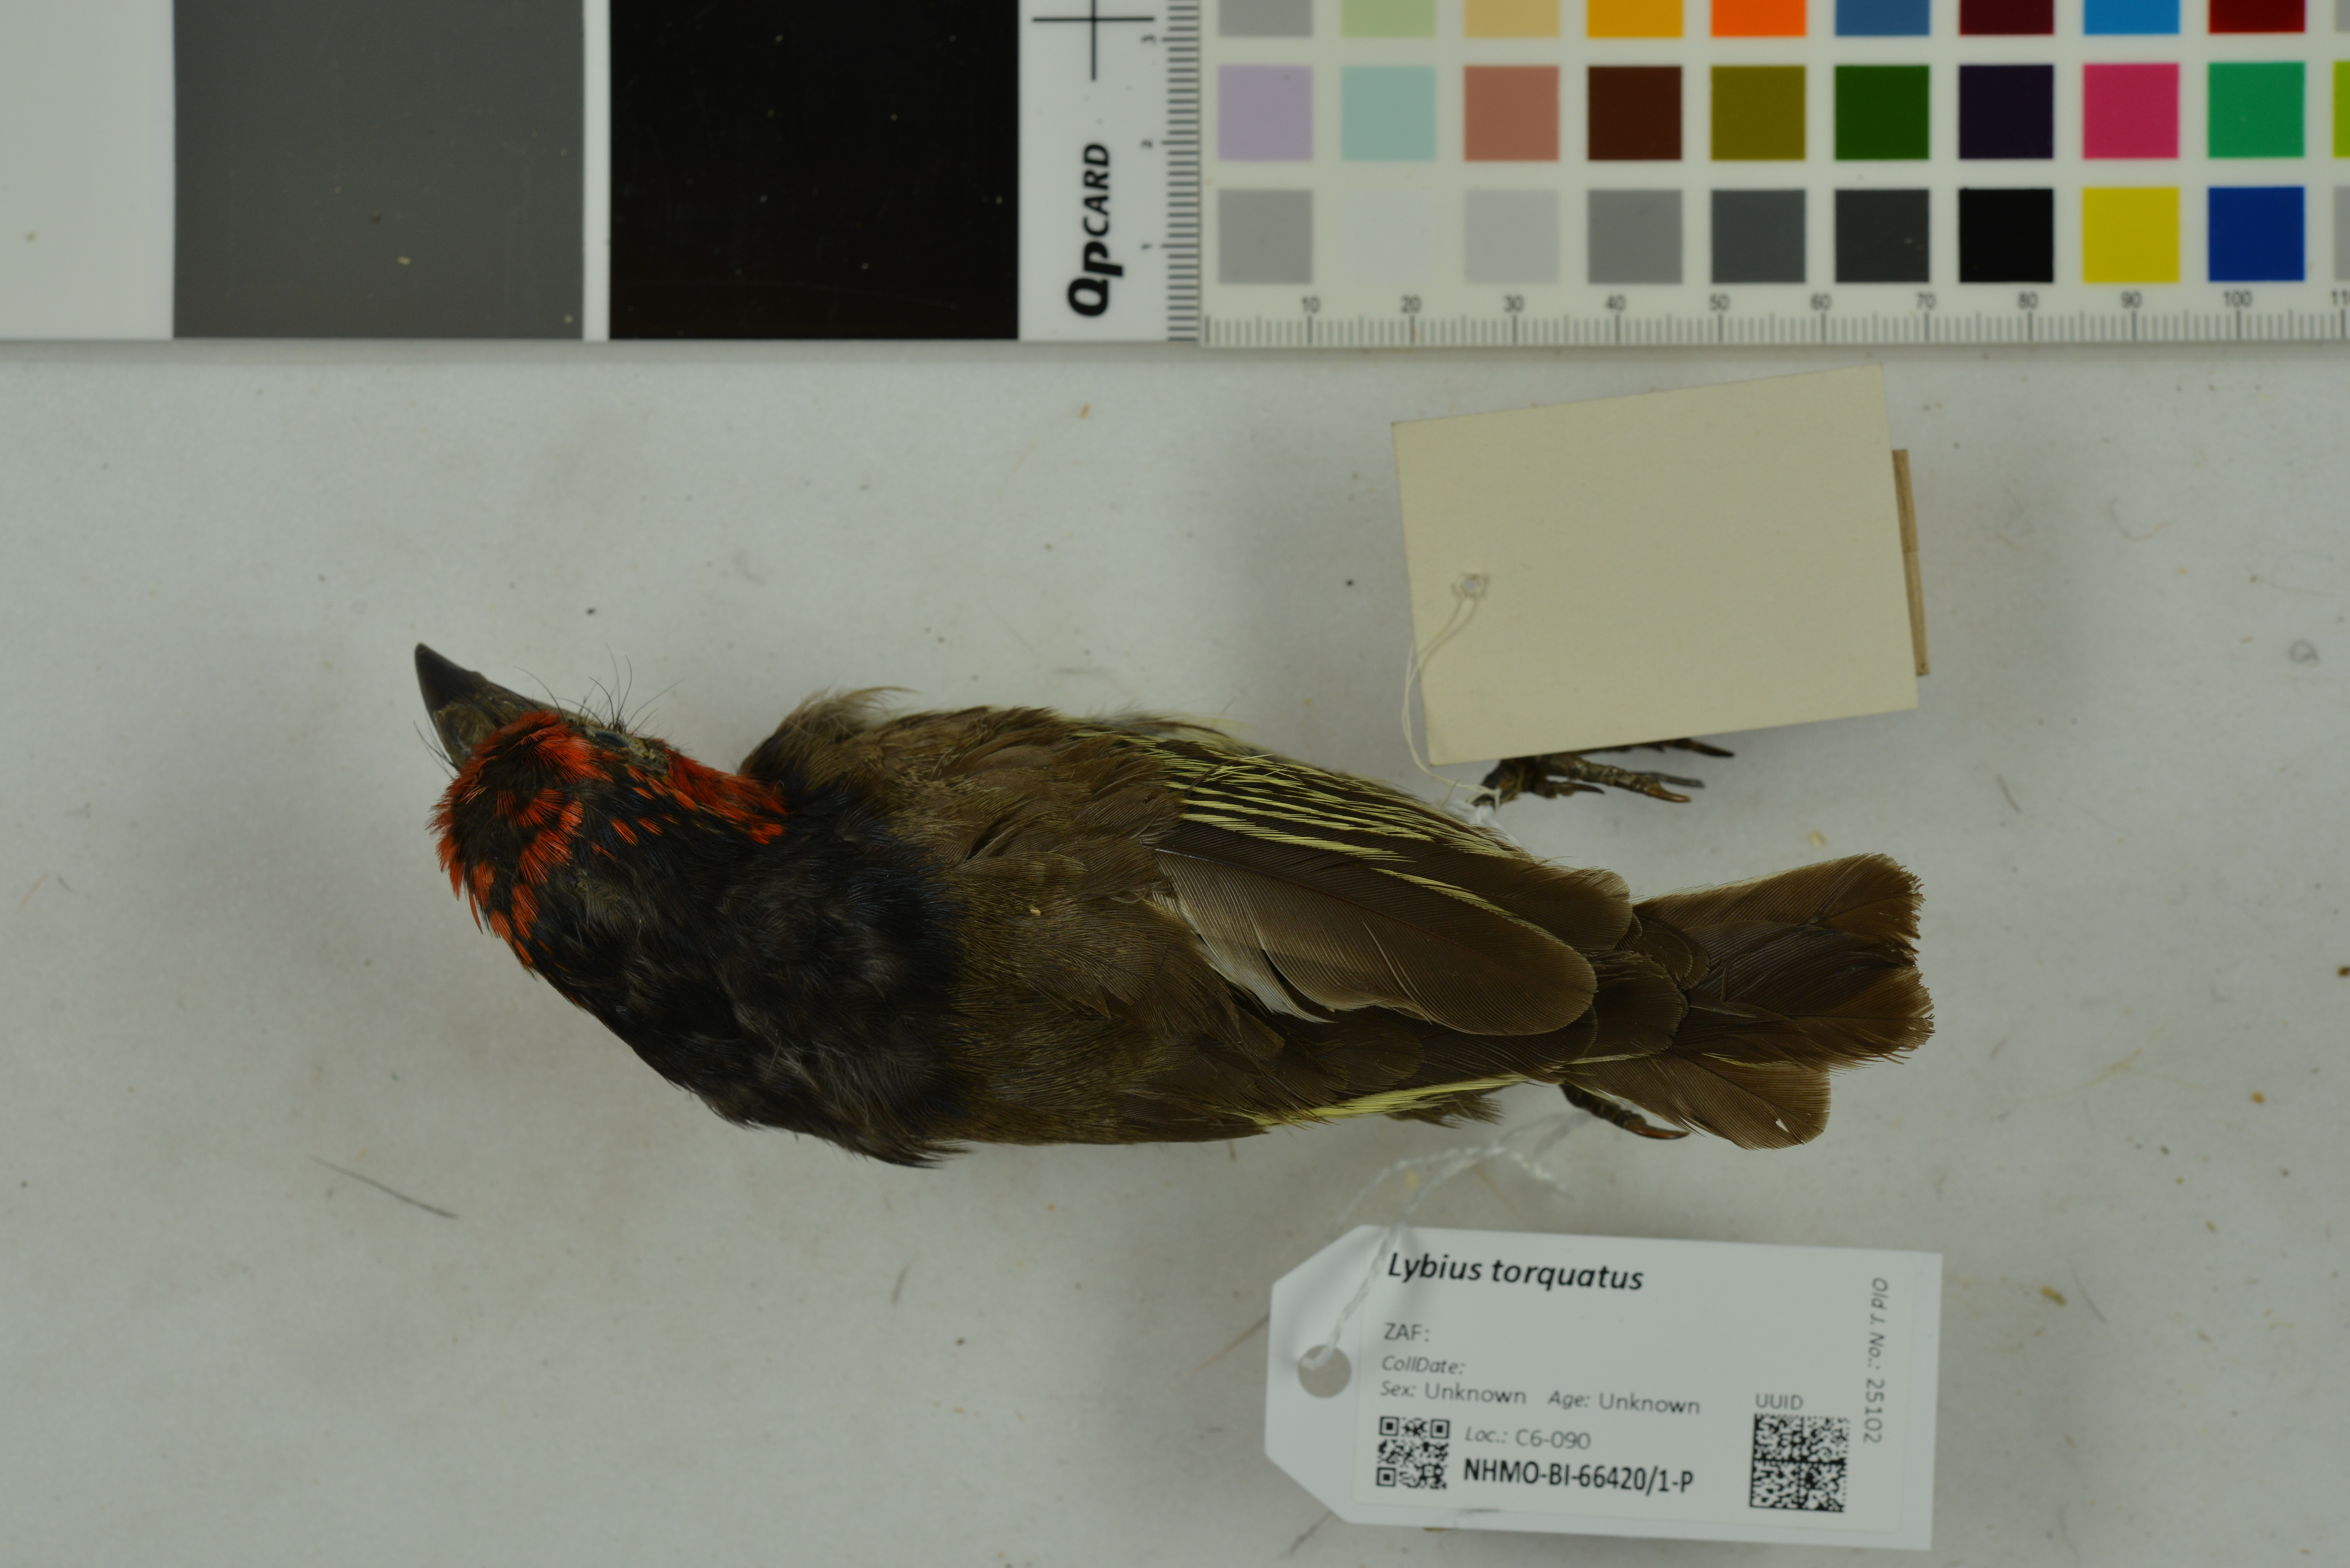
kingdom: Animalia
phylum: Chordata
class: Aves
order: Piciformes
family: Lybiidae
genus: Lybius
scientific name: Lybius torquatus
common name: Black-collared barbet
